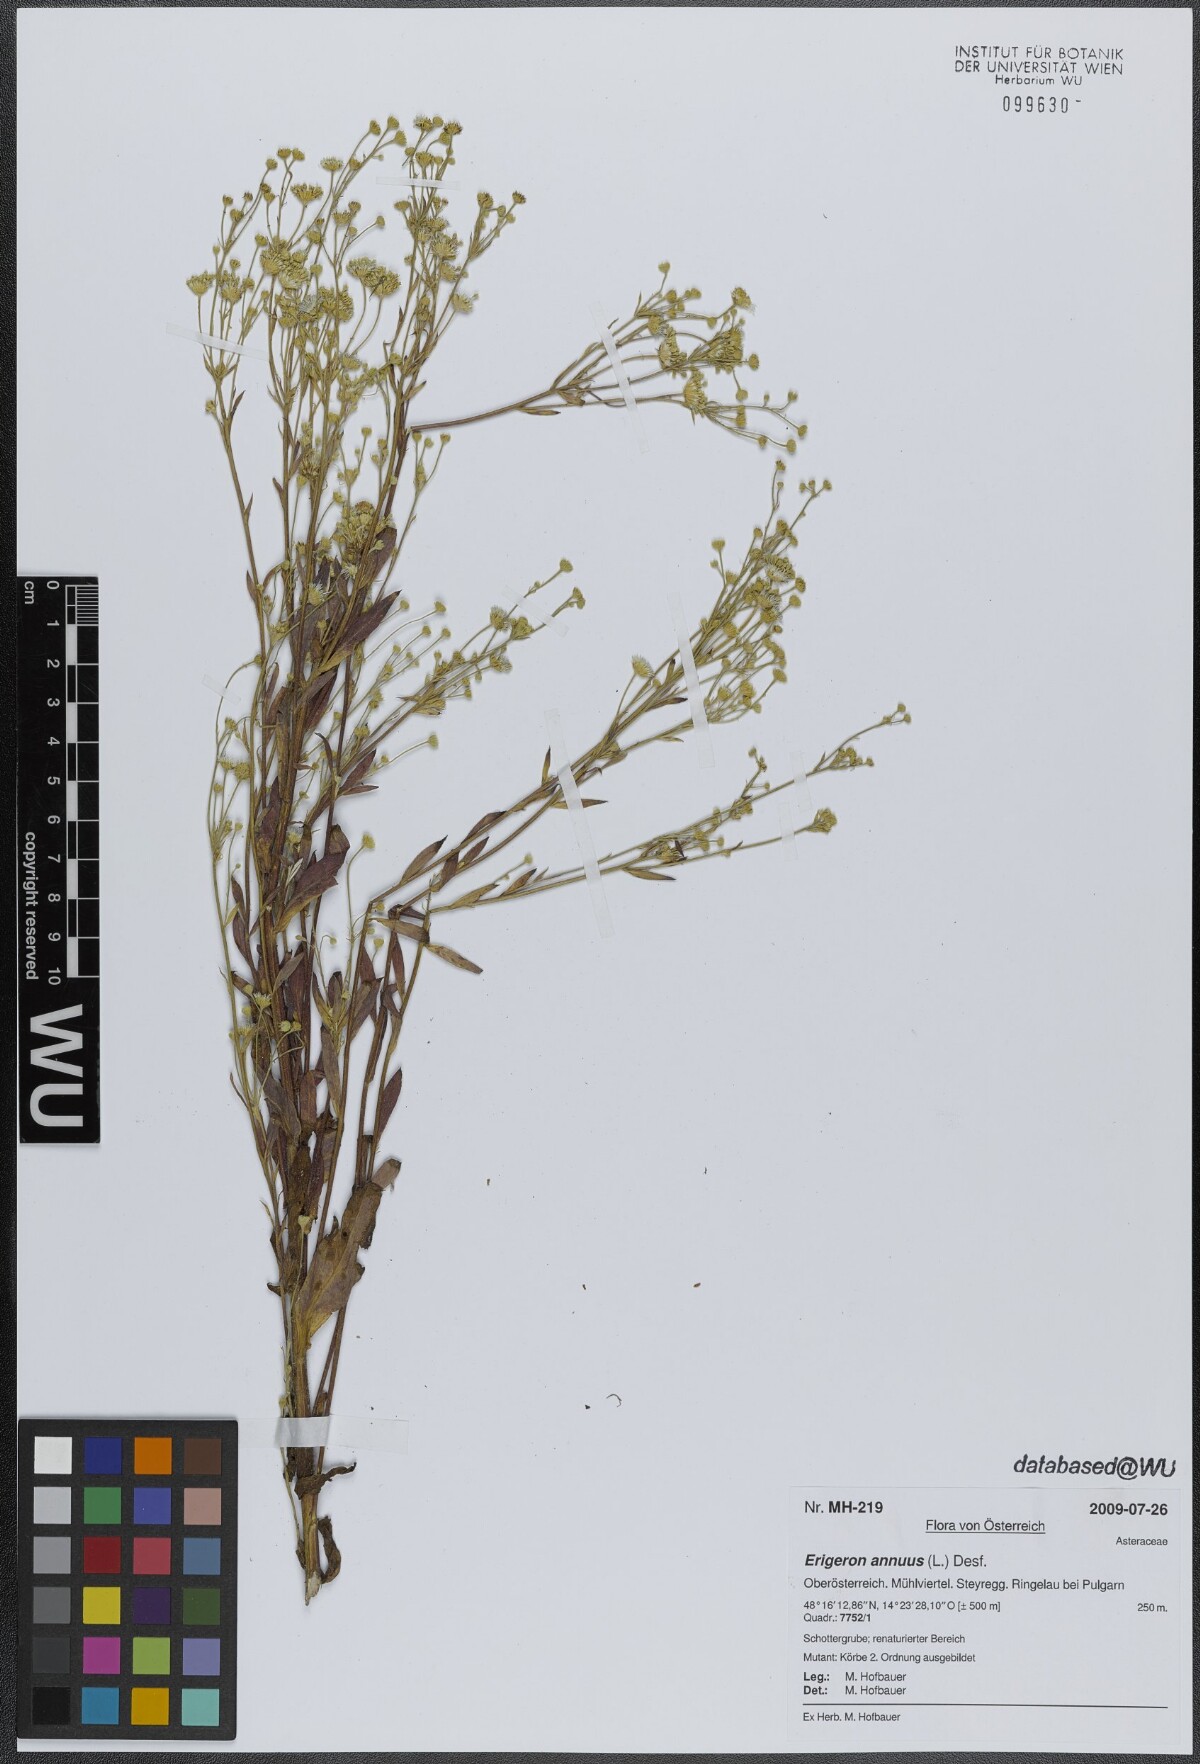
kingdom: Plantae
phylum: Tracheophyta
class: Magnoliopsida
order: Asterales
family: Asteraceae
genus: Erigeron
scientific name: Erigeron annuus
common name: Tall fleabane
